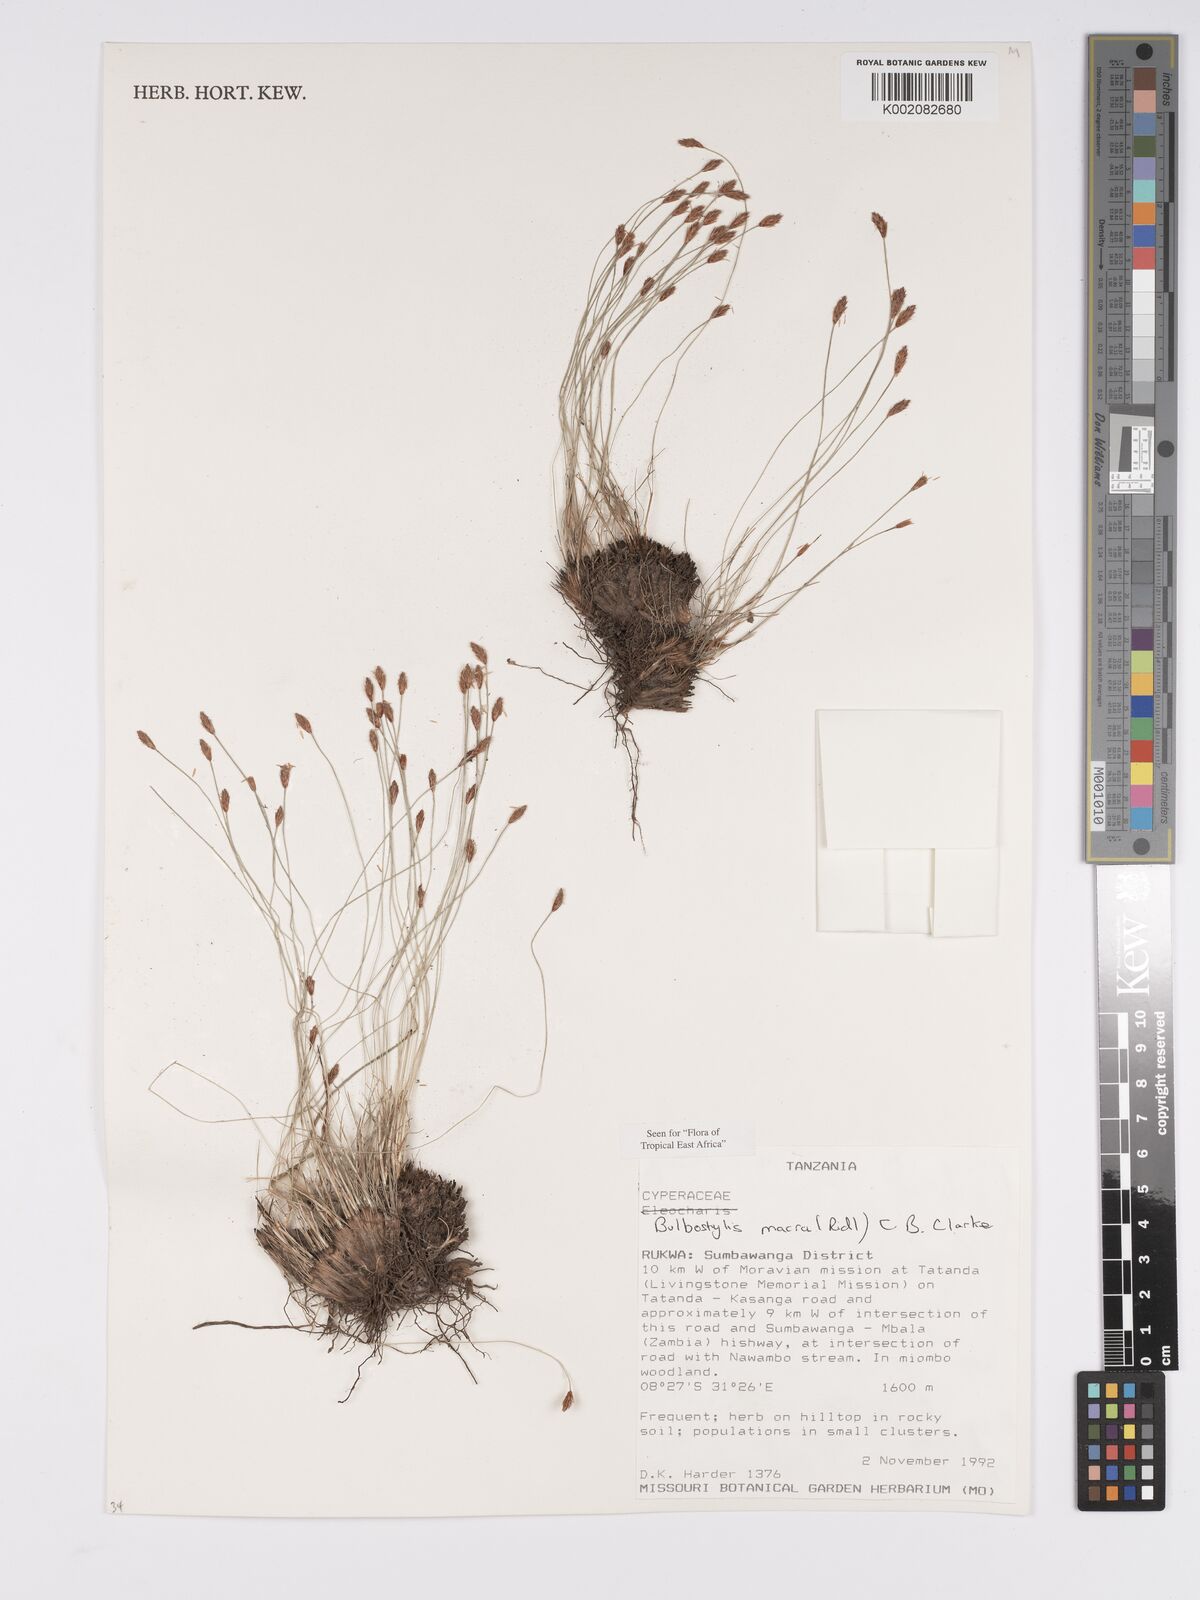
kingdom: Plantae
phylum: Tracheophyta
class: Liliopsida
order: Poales
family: Cyperaceae
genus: Bulbostylis
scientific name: Bulbostylis macra
